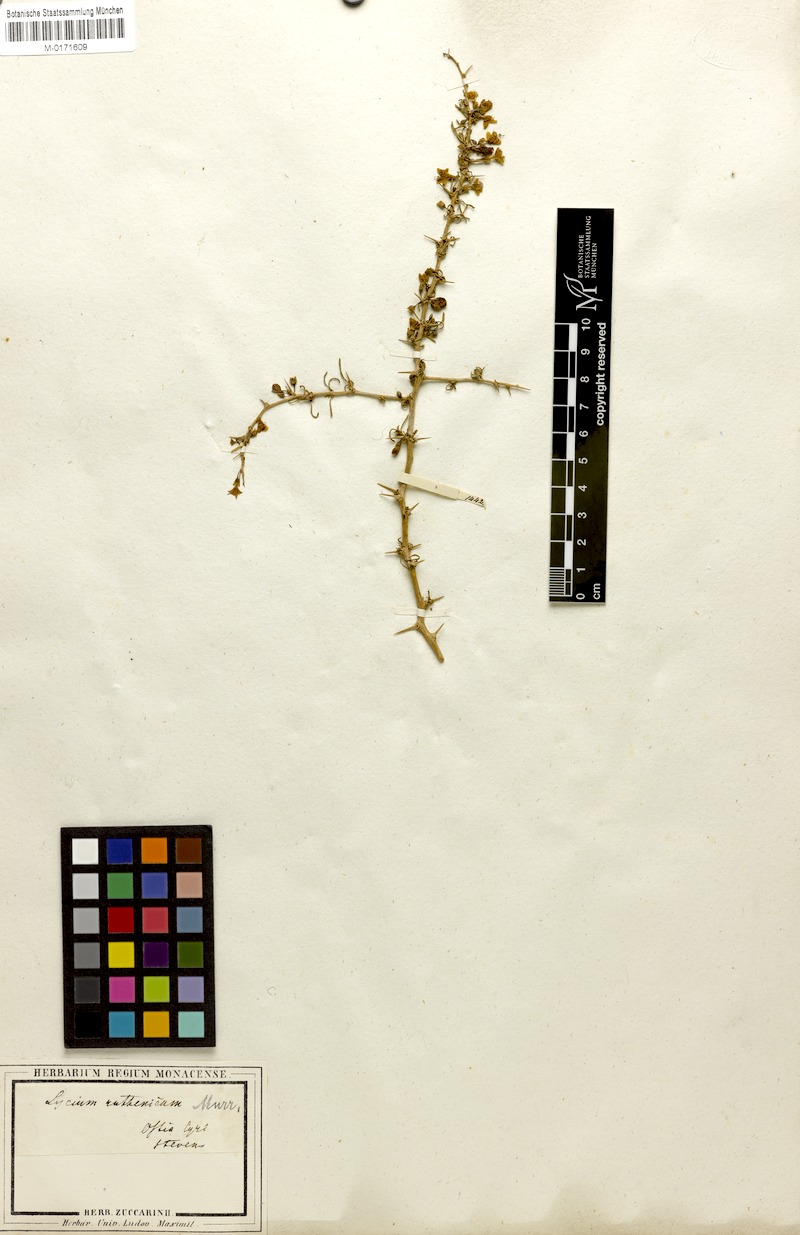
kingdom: Plantae
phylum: Tracheophyta
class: Magnoliopsida
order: Solanales
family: Solanaceae
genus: Lycium
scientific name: Lycium ruthenicum
